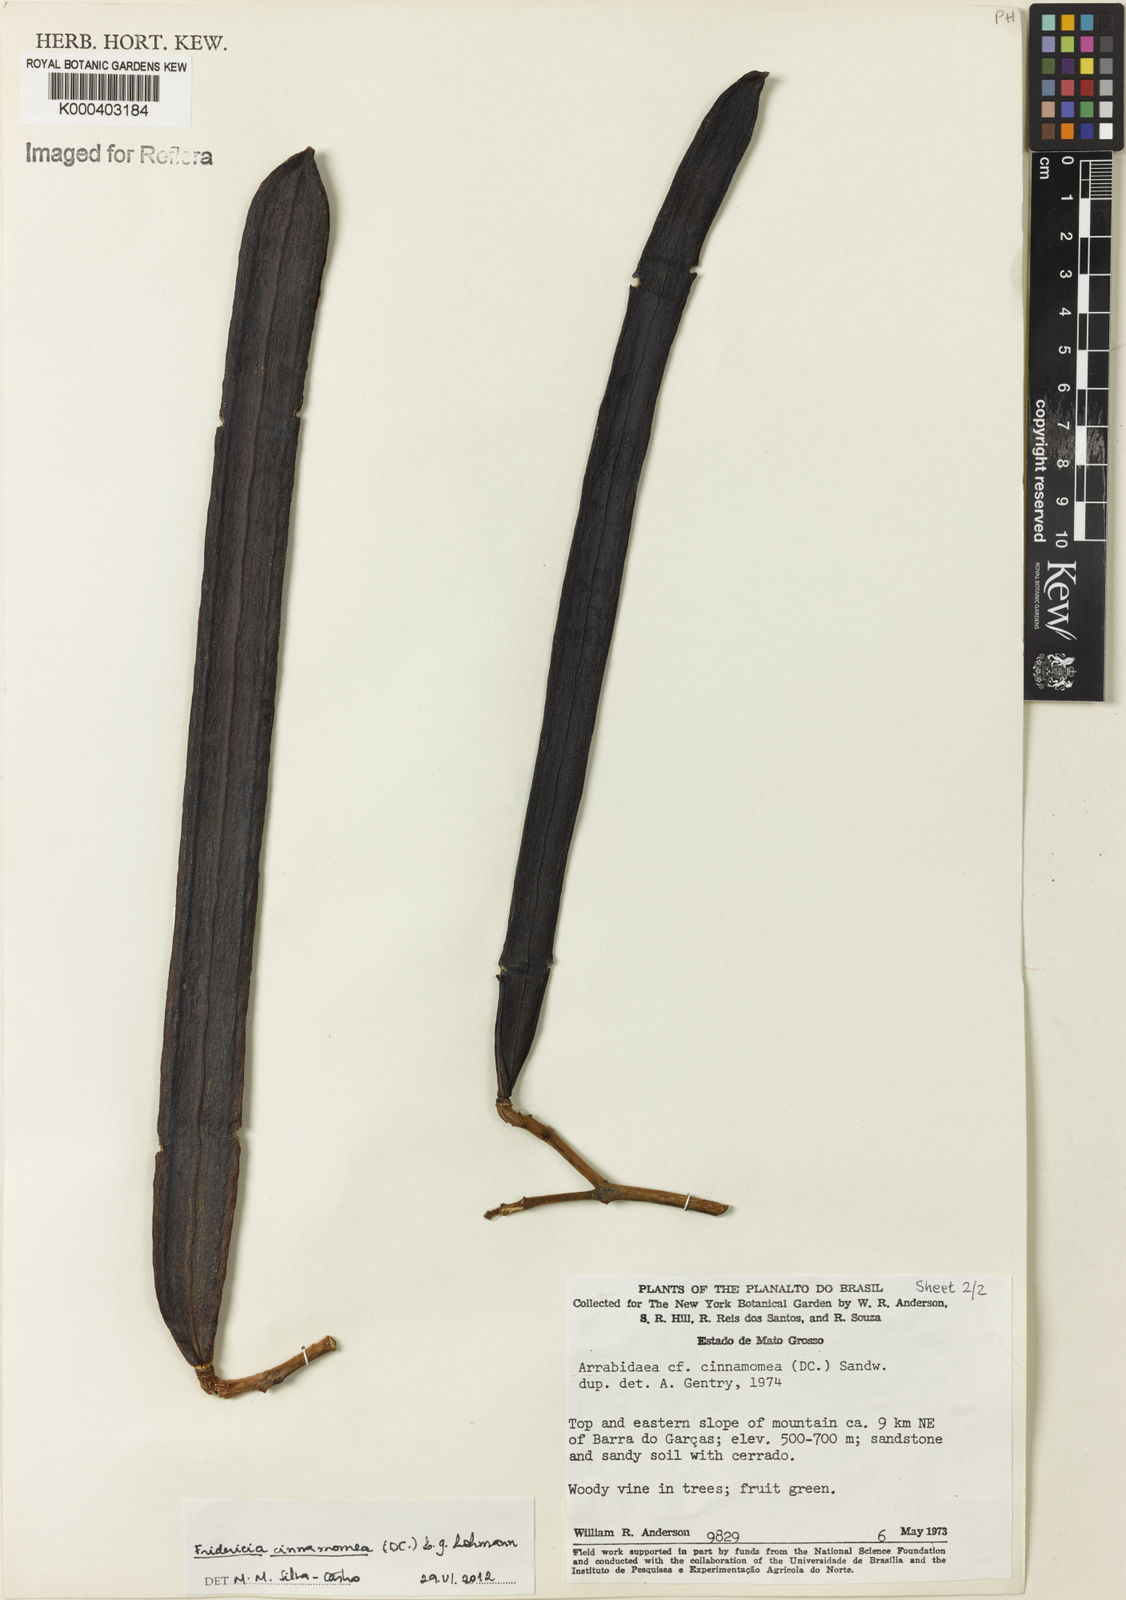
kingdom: Plantae
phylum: Tracheophyta
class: Magnoliopsida
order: Lamiales
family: Bignoniaceae
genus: Fridericia
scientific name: Fridericia cinnamomea
